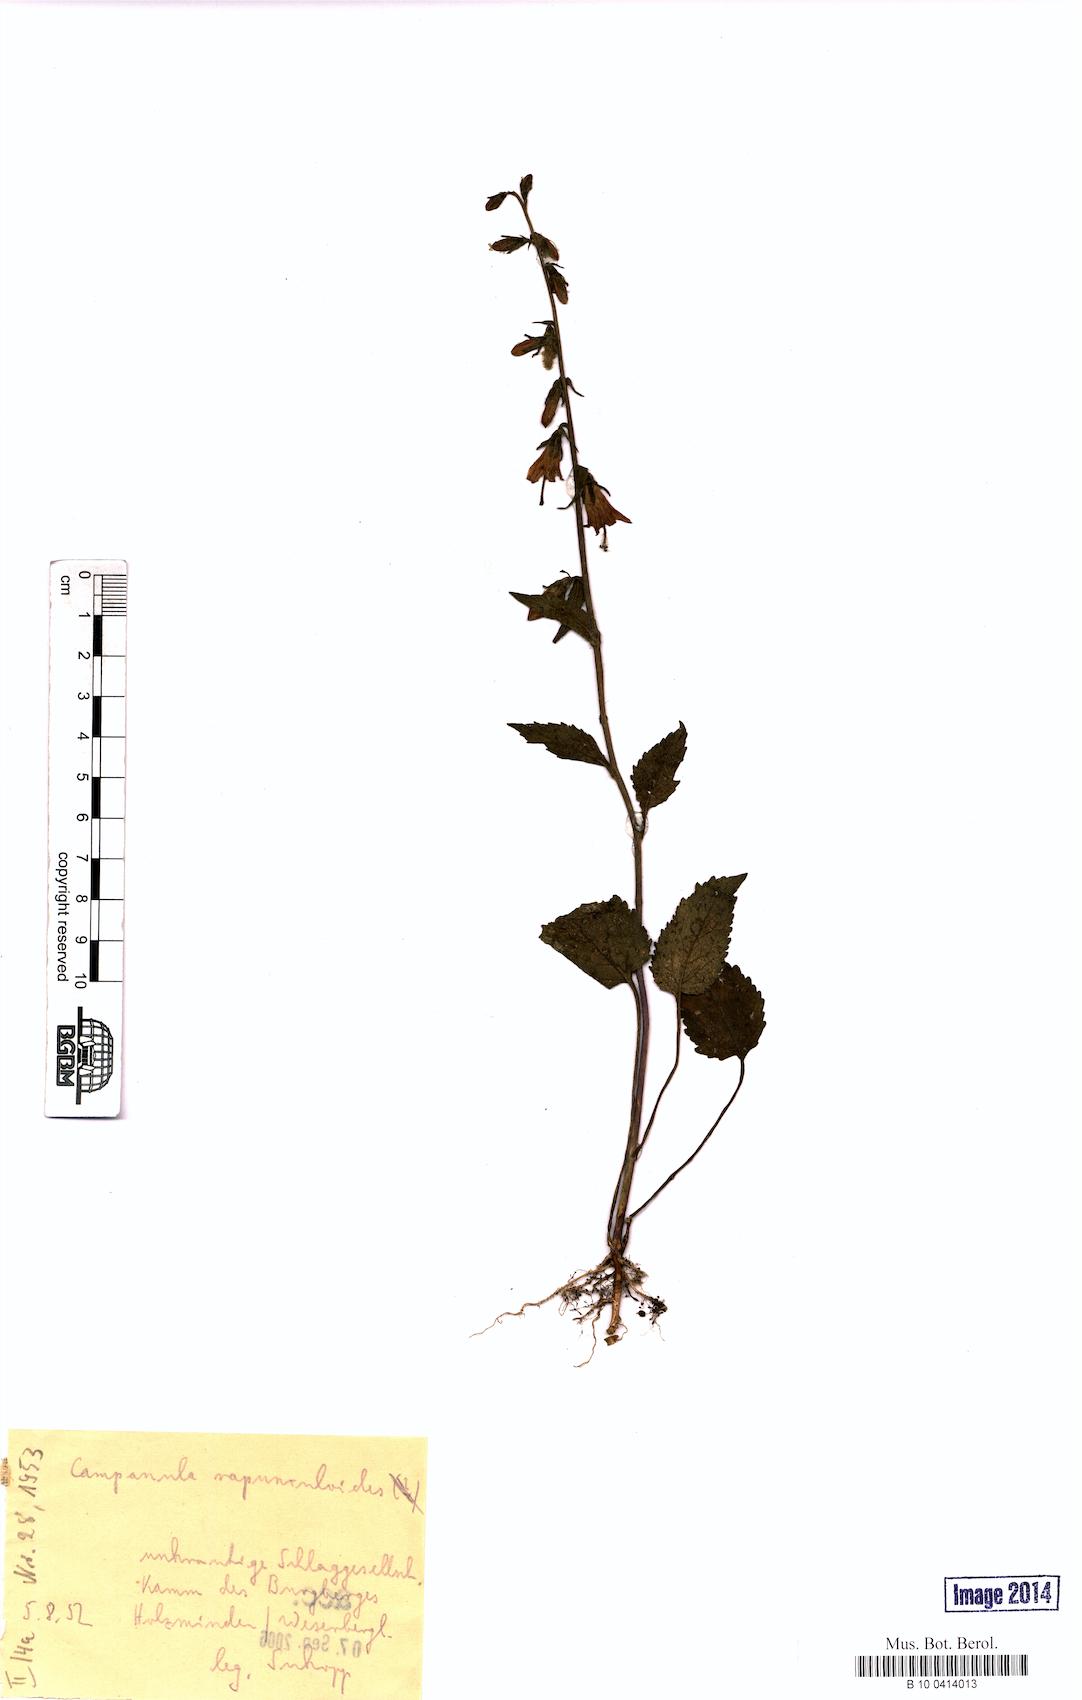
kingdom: Plantae
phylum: Tracheophyta
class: Magnoliopsida
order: Asterales
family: Campanulaceae
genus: Campanula
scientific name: Campanula rapunculoides
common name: Creeping bellflower
